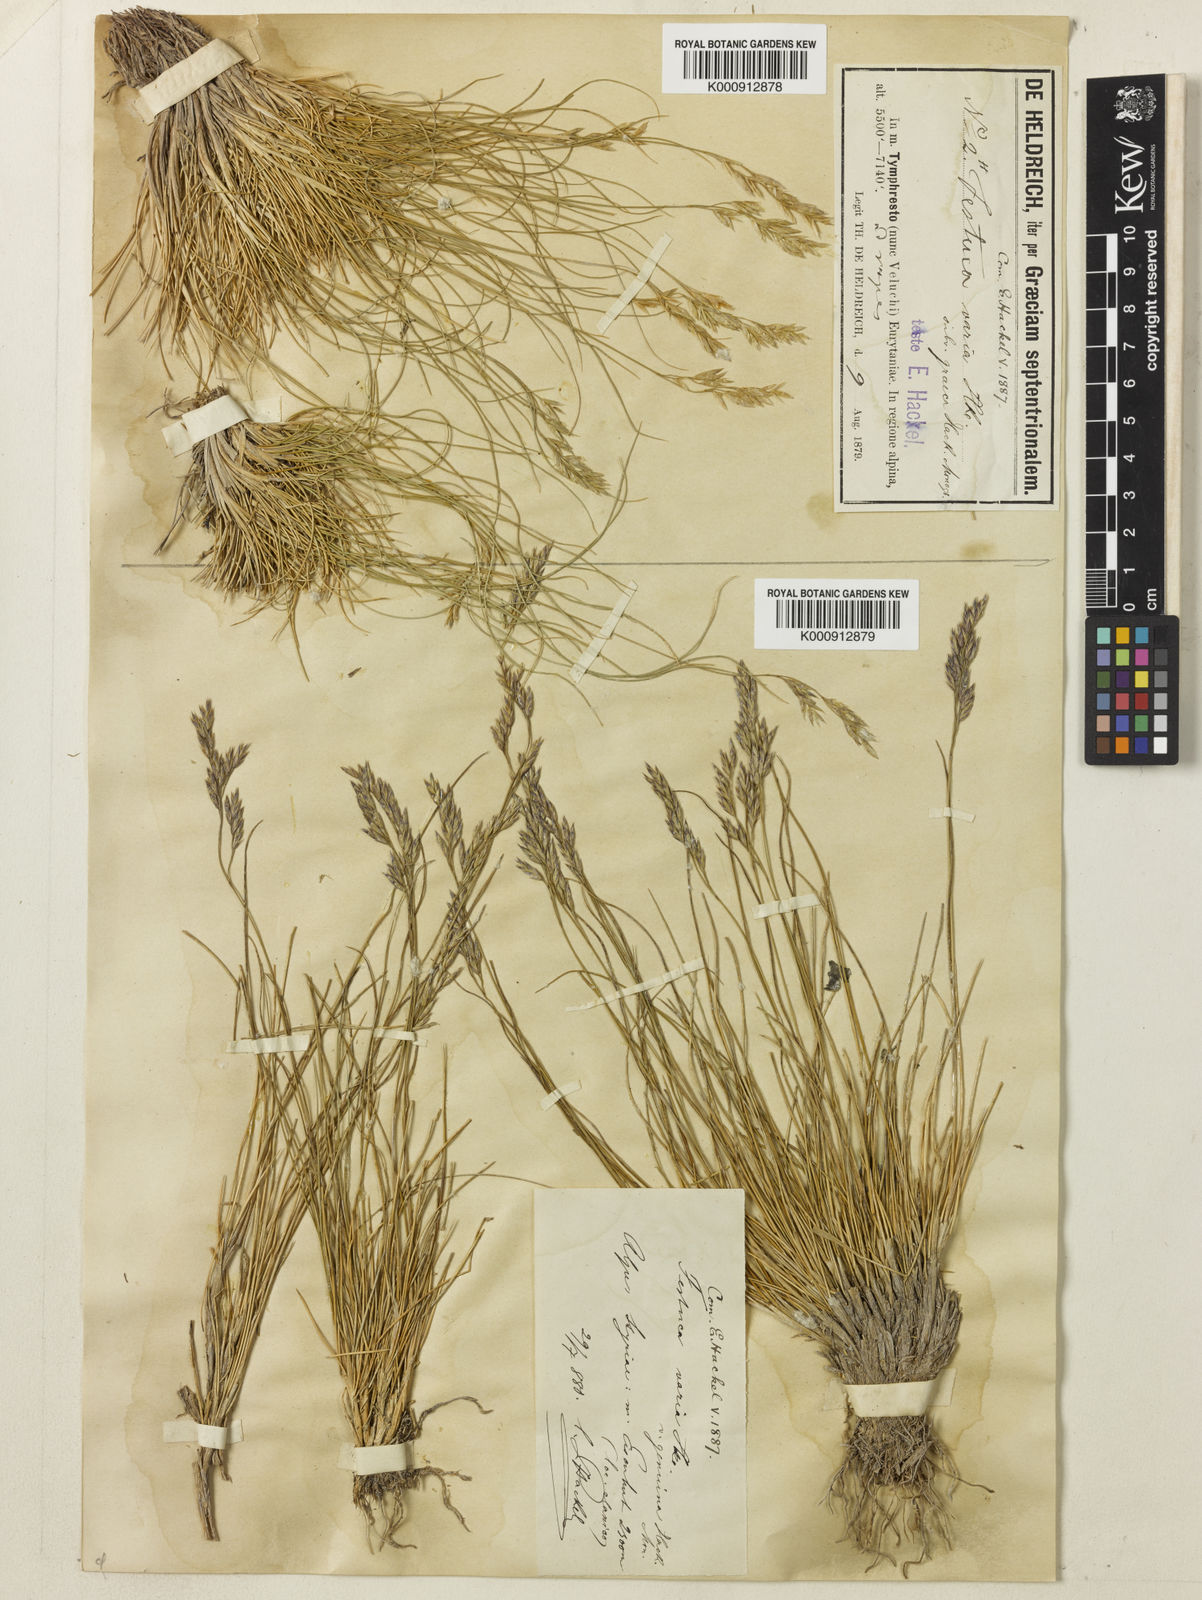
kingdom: Plantae
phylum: Tracheophyta
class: Liliopsida
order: Poales
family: Poaceae
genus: Festuca
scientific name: Festuca graeca
